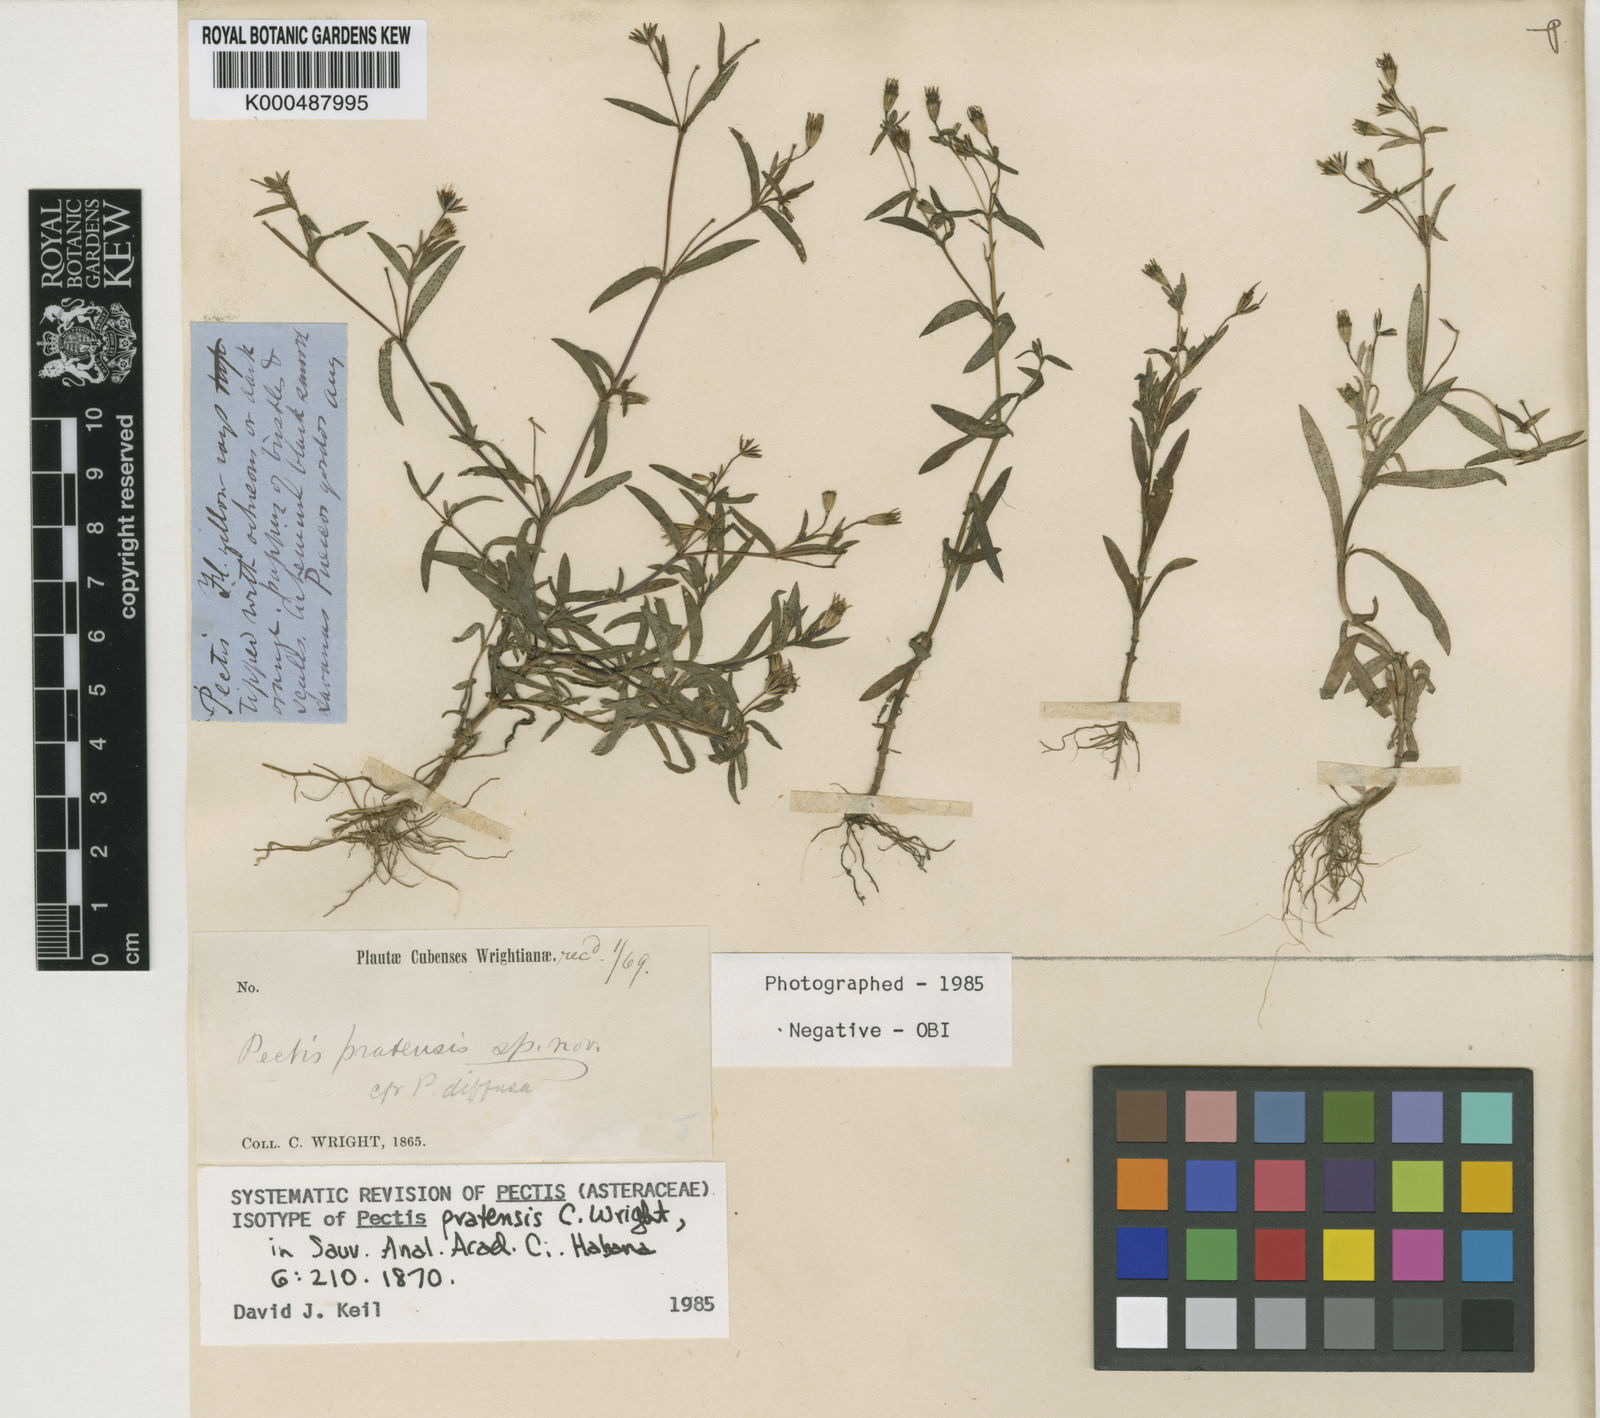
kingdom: Plantae
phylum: Tracheophyta
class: Magnoliopsida
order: Asterales
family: Asteraceae
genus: Pectis
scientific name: Pectis bonplandiana
